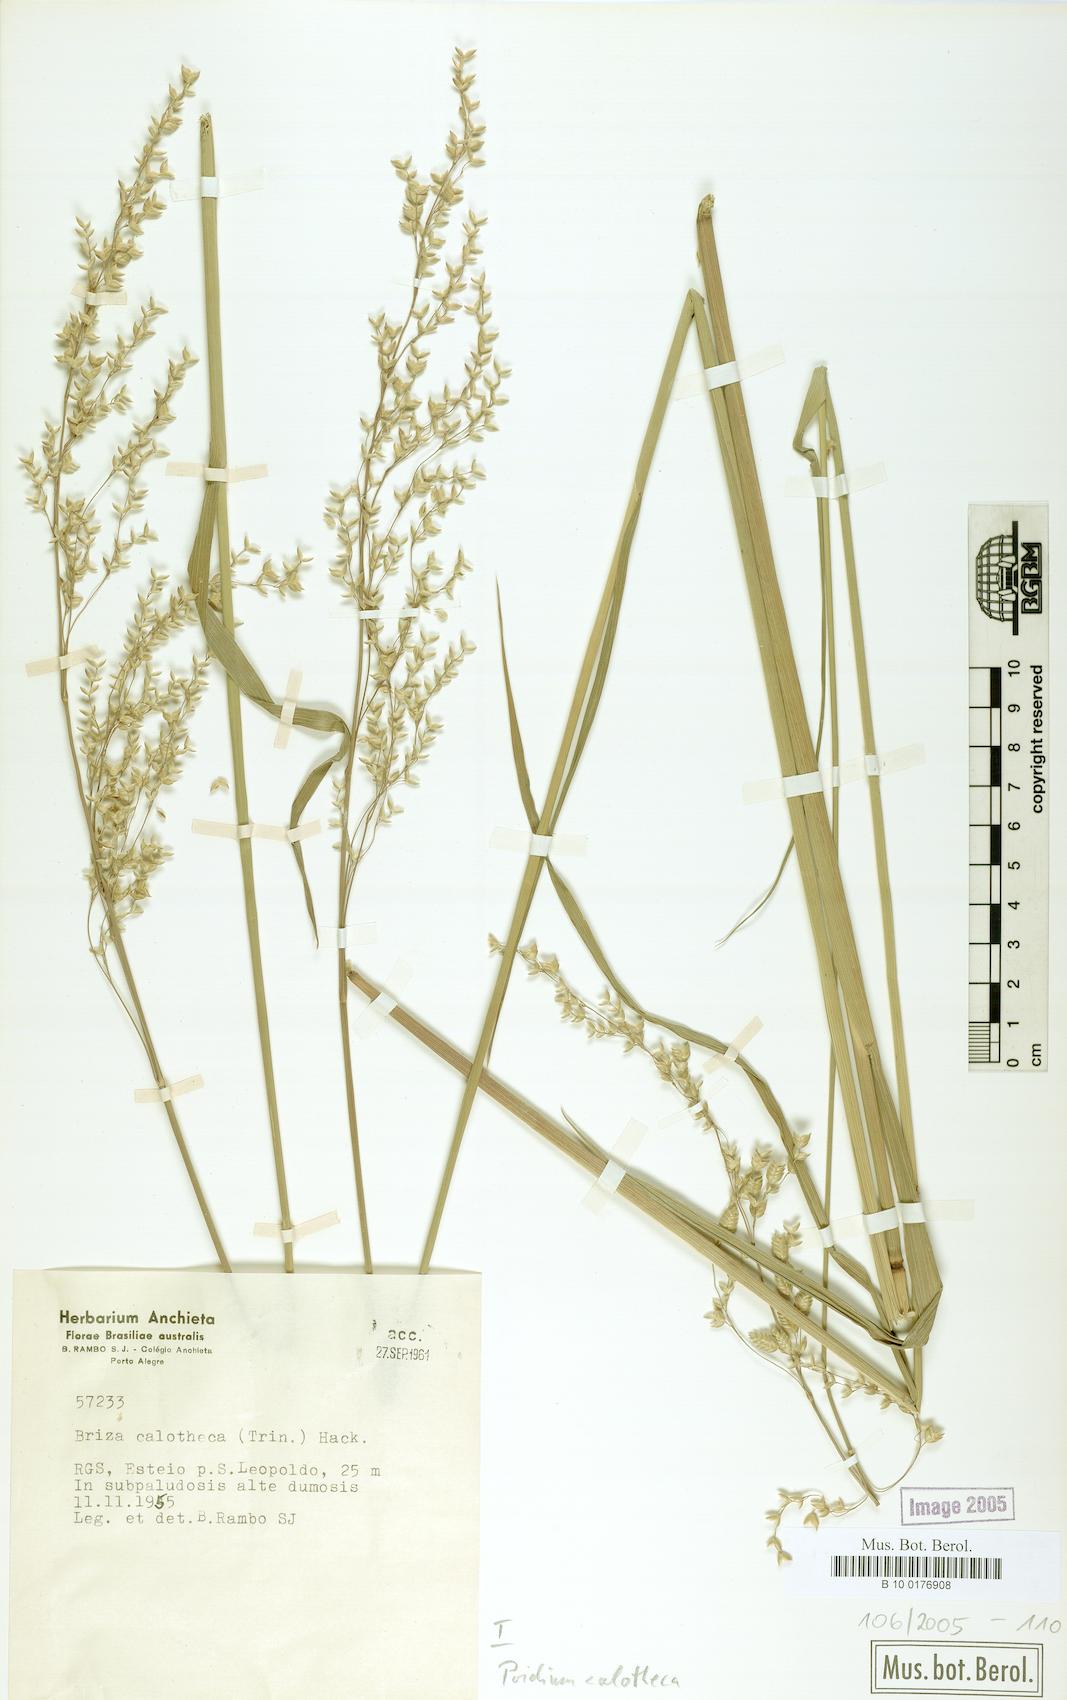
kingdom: Plantae
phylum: Tracheophyta
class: Liliopsida
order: Poales
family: Poaceae
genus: Poidium
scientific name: Poidium calotheca
